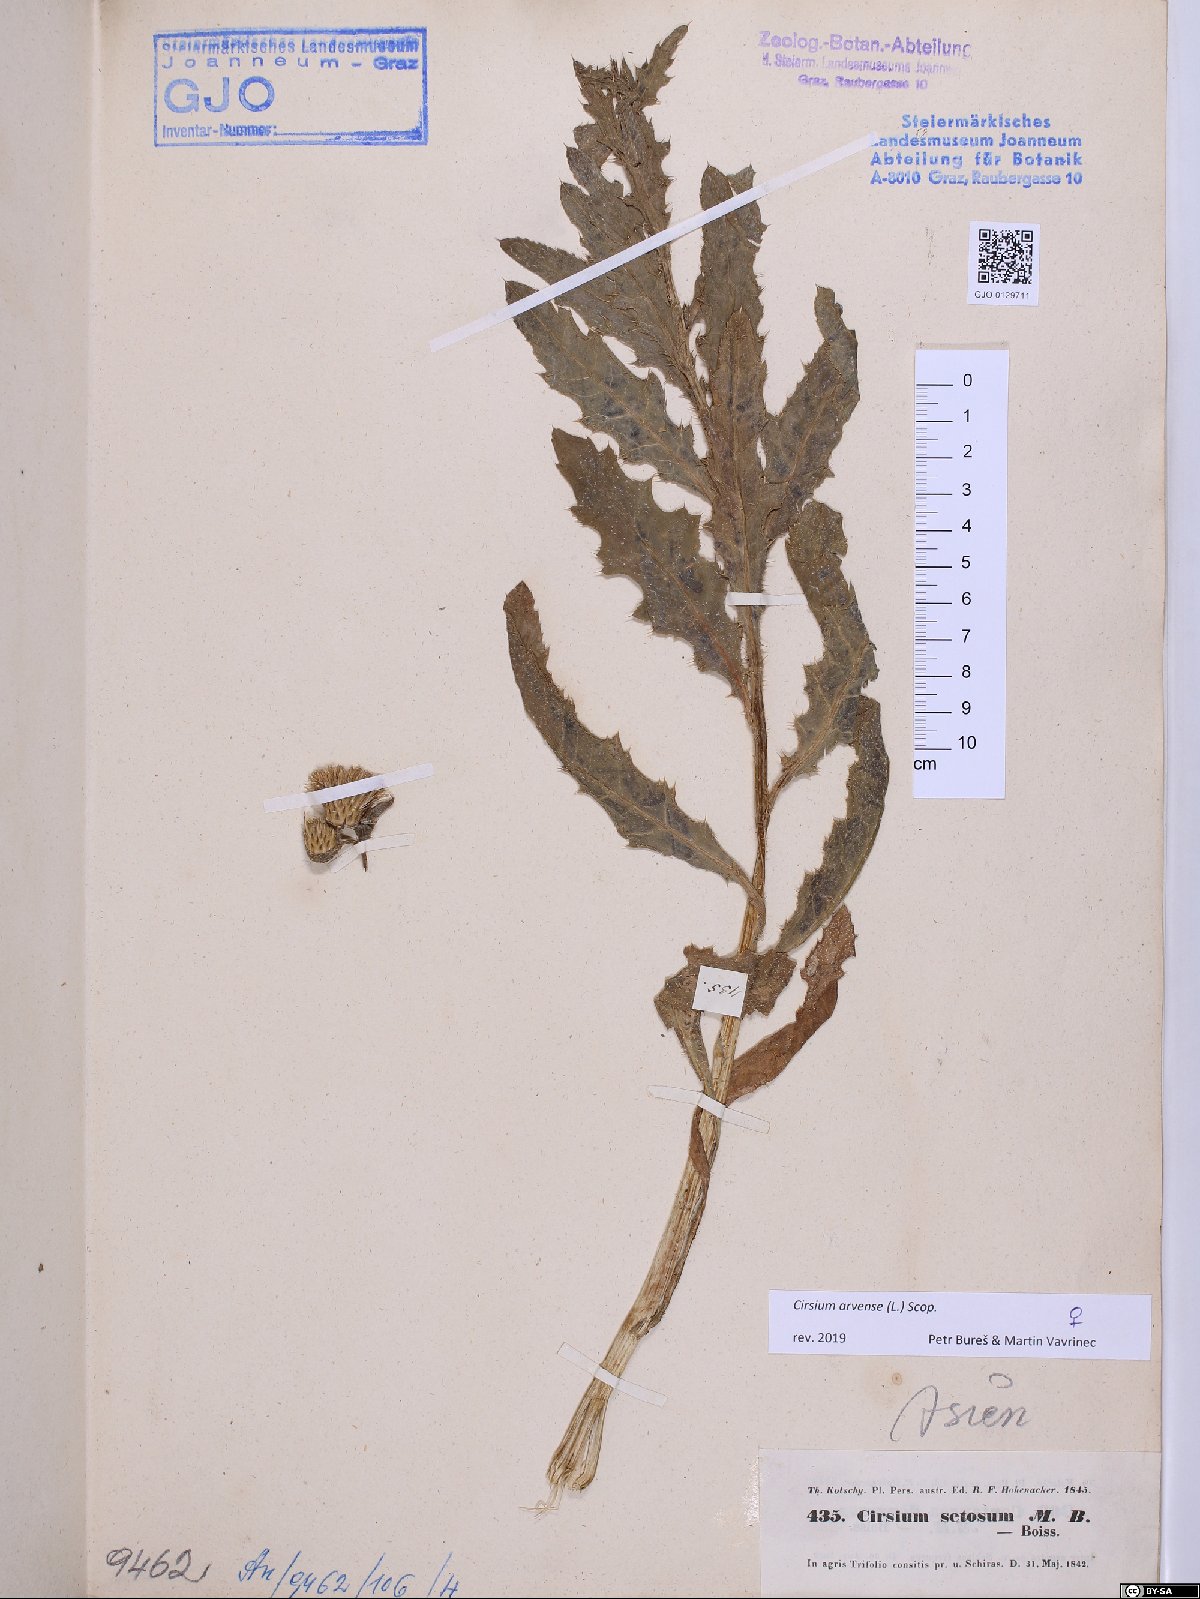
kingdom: Plantae
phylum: Tracheophyta
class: Magnoliopsida
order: Asterales
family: Asteraceae
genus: Cirsium
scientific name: Cirsium arvense
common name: Creeping thistle
